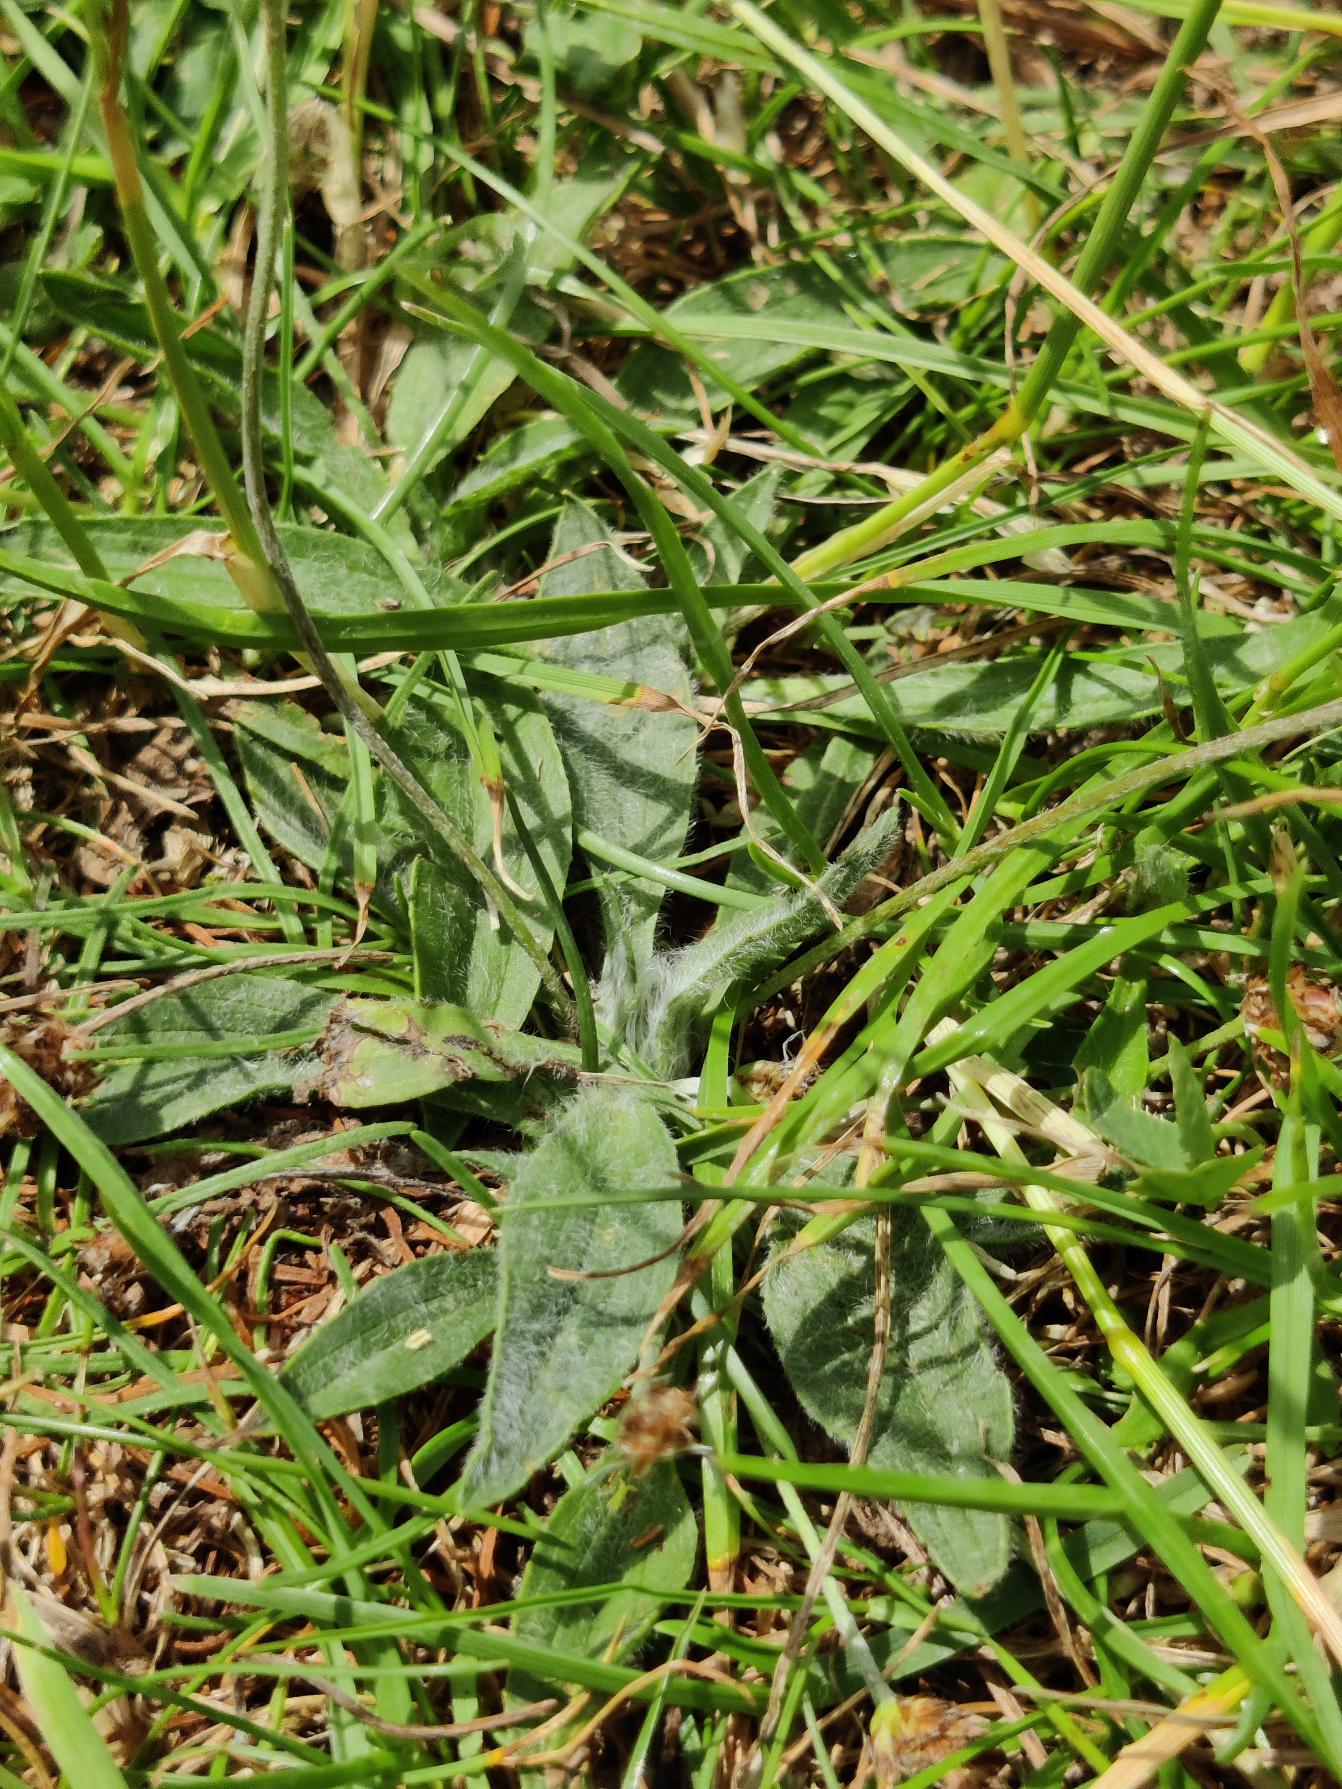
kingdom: Plantae
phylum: Tracheophyta
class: Magnoliopsida
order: Lamiales
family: Plantaginaceae
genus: Plantago
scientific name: Plantago lanceolata
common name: Lancet-vejbred
